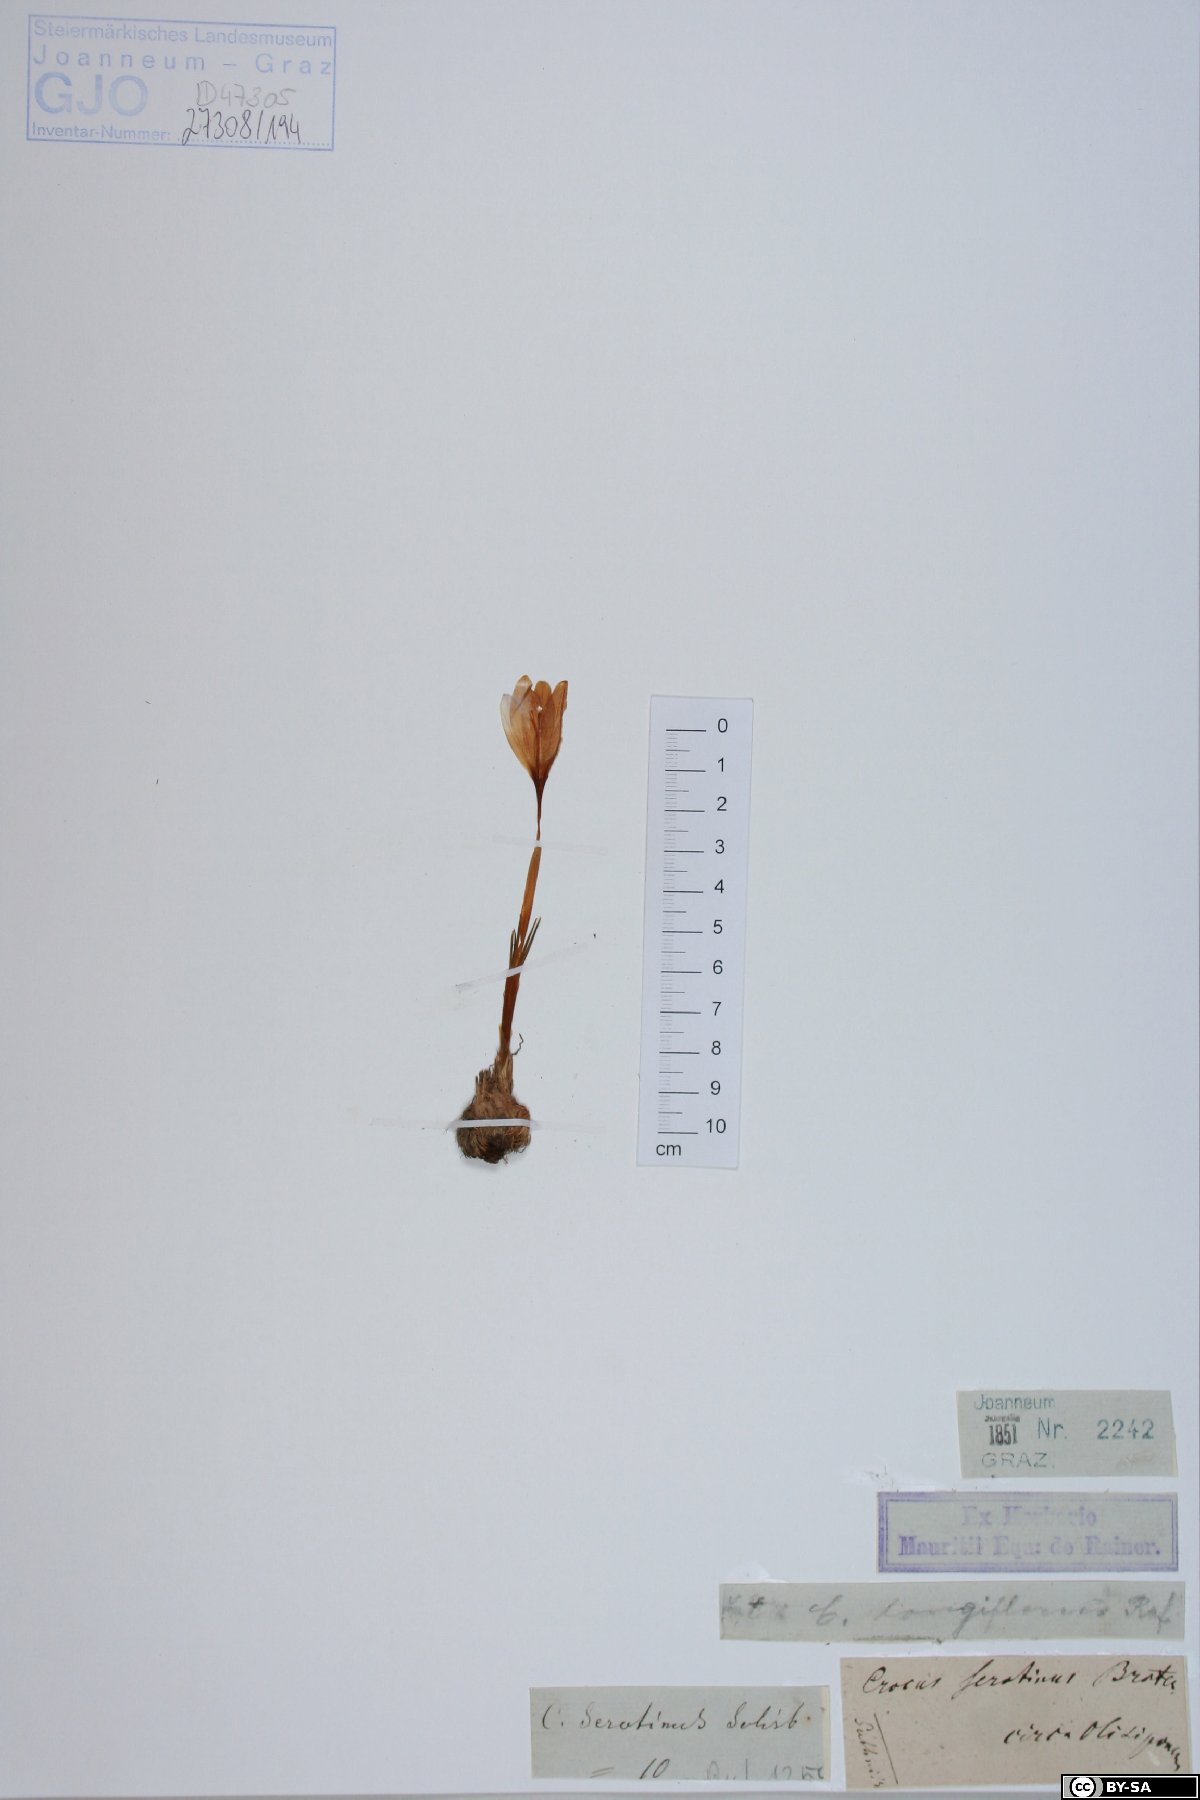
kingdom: Plantae
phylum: Tracheophyta
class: Liliopsida
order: Asparagales
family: Iridaceae
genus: Crocus
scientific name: Crocus autumnalis
